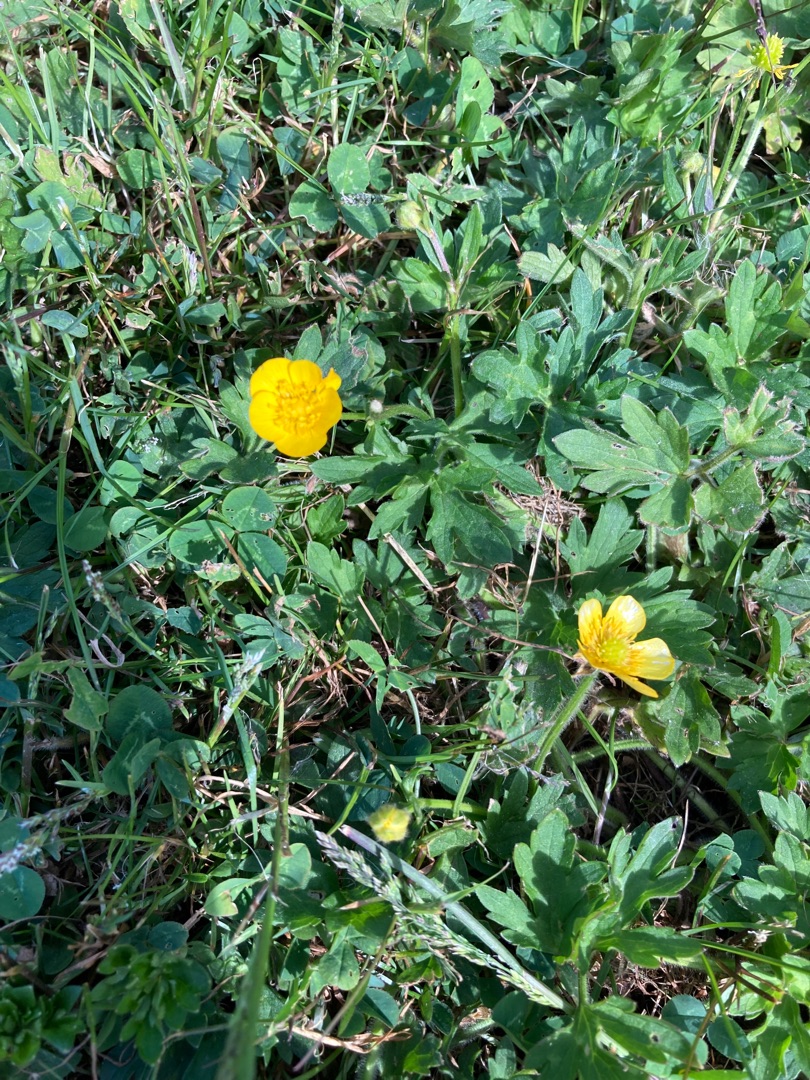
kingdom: Plantae
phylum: Tracheophyta
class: Magnoliopsida
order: Ranunculales
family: Ranunculaceae
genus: Ranunculus
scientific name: Ranunculus repens
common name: Lav ranunkel
